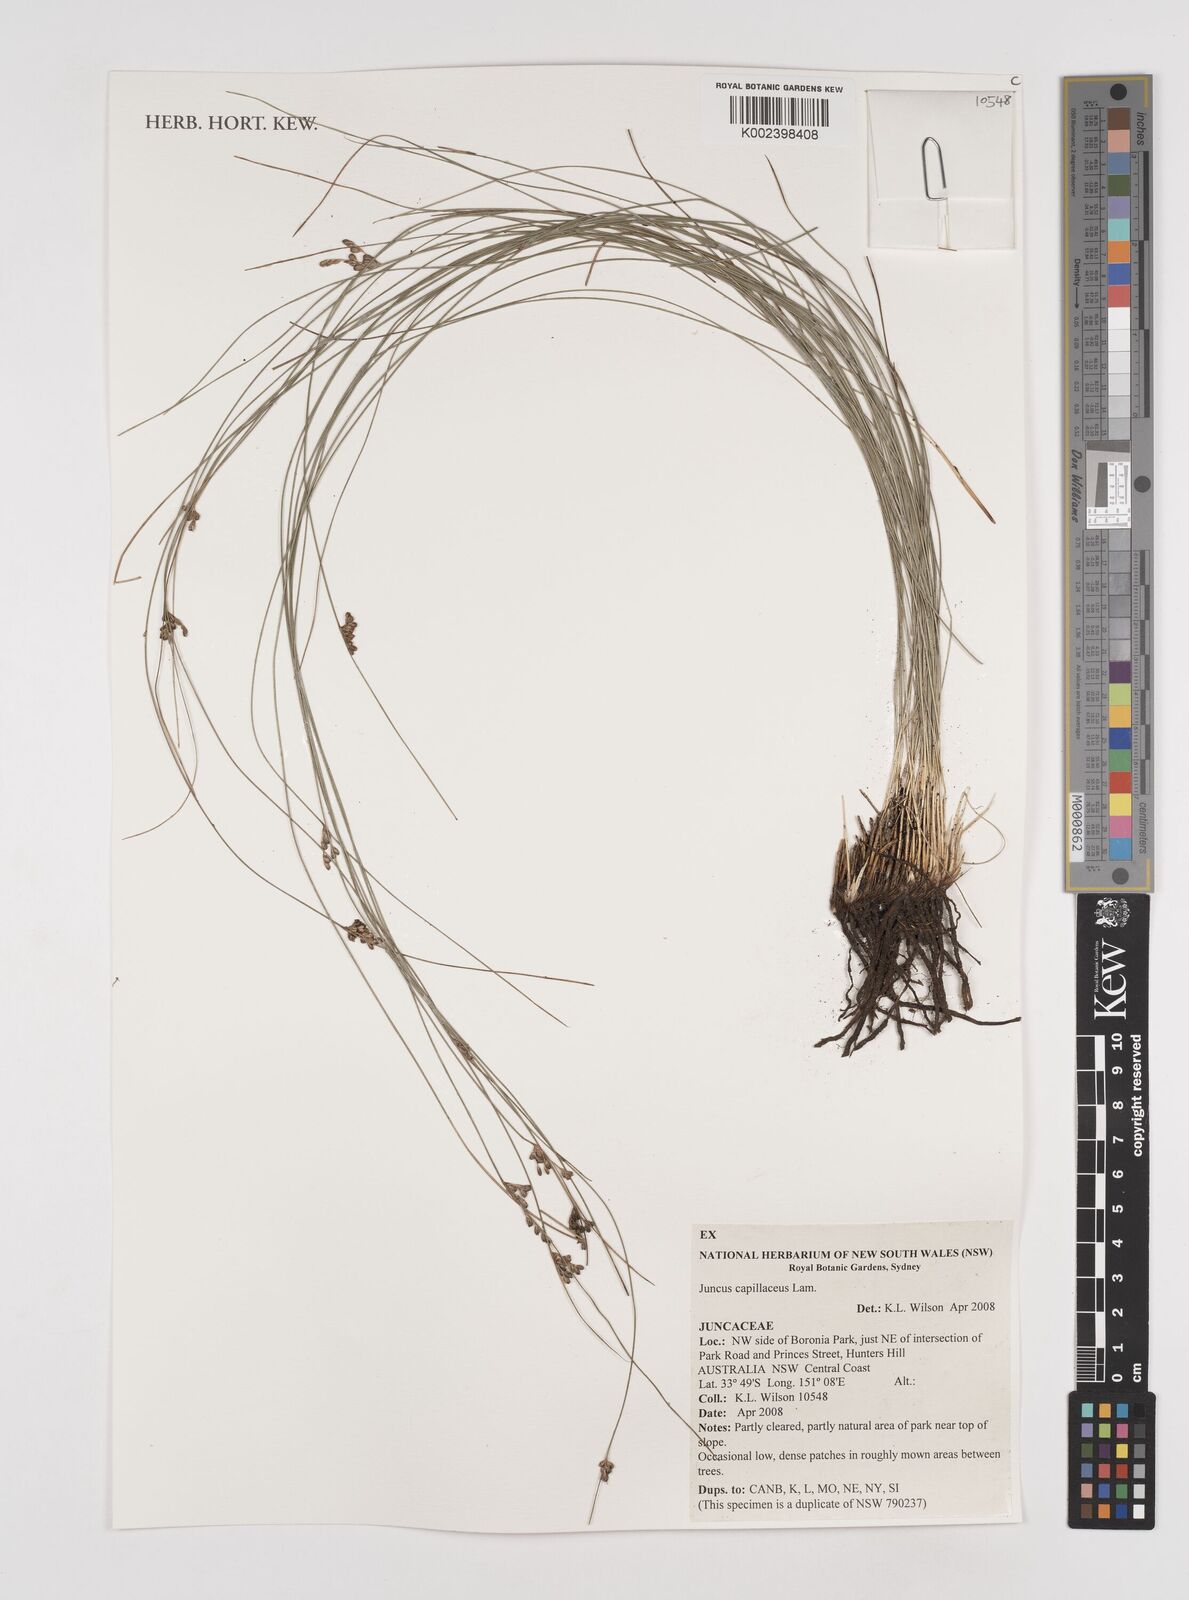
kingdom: Plantae
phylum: Tracheophyta
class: Liliopsida
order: Poales
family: Juncaceae
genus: Juncus
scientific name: Juncus capillaceus
